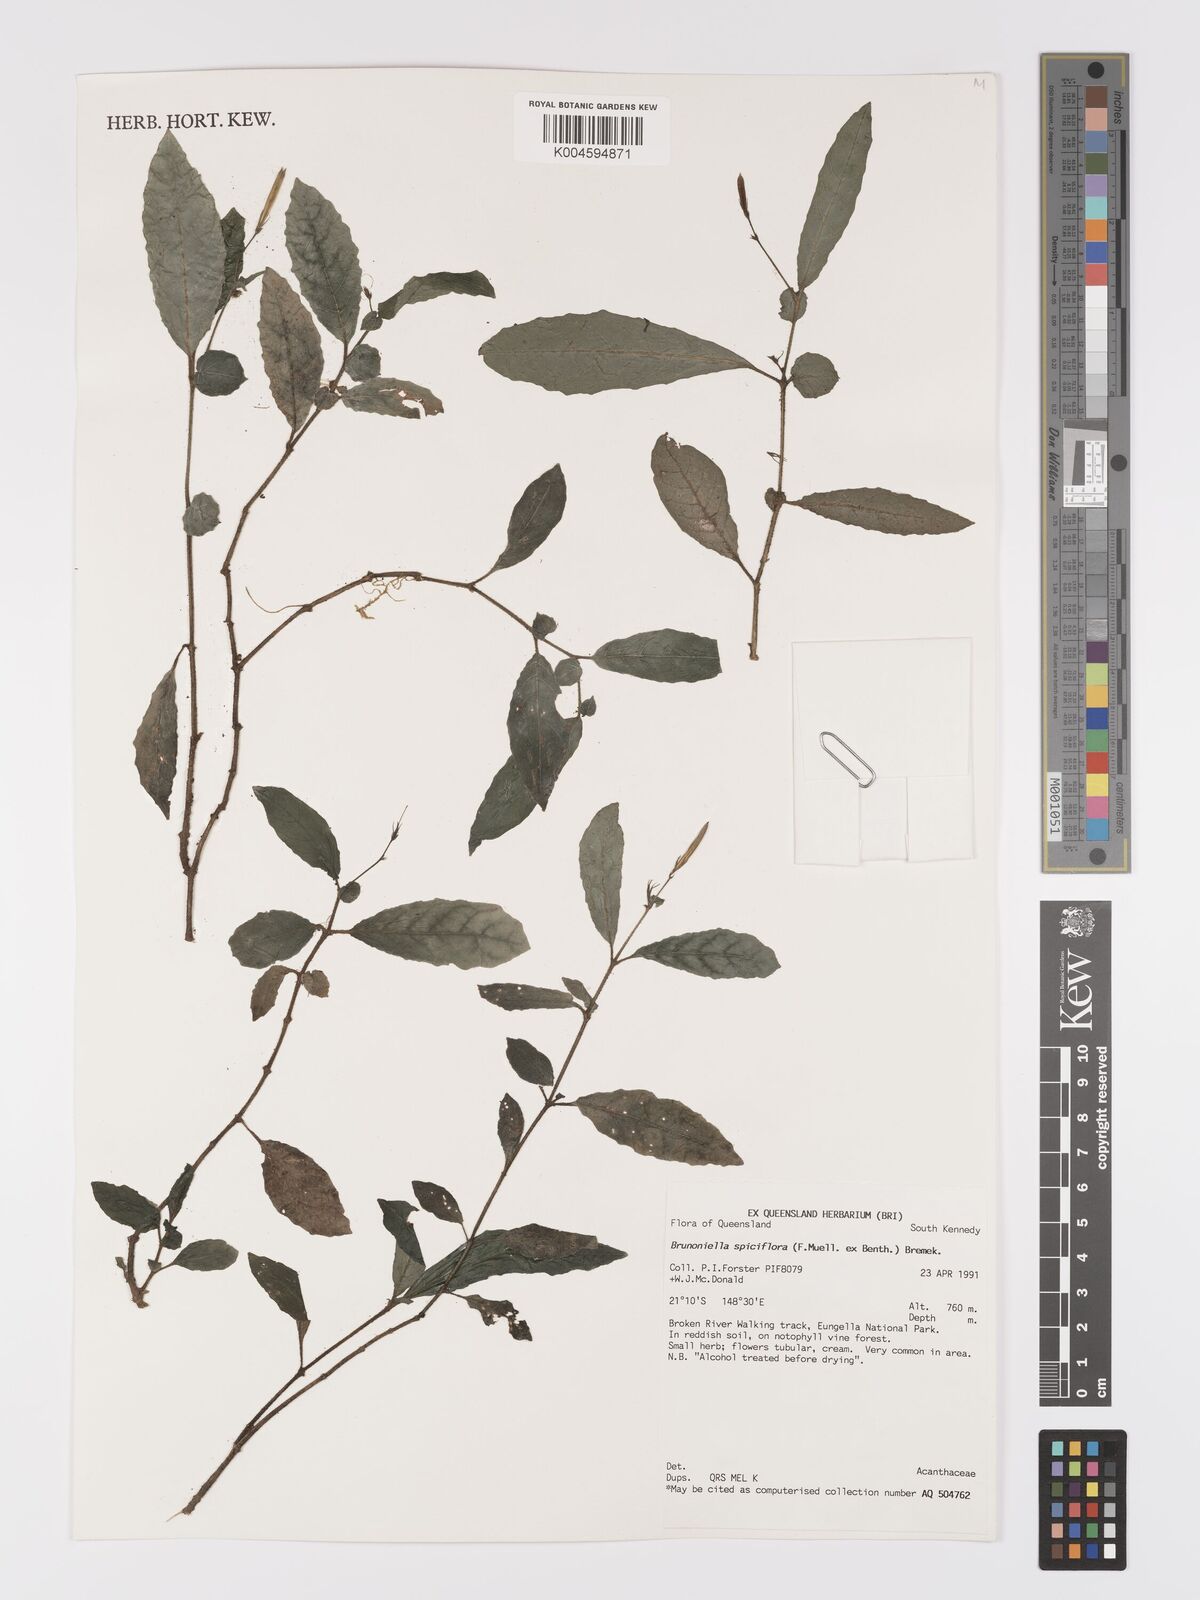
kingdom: Plantae
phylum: Tracheophyta
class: Magnoliopsida
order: Lamiales
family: Acanthaceae
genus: Brunoniella
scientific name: Brunoniella spiciflora
